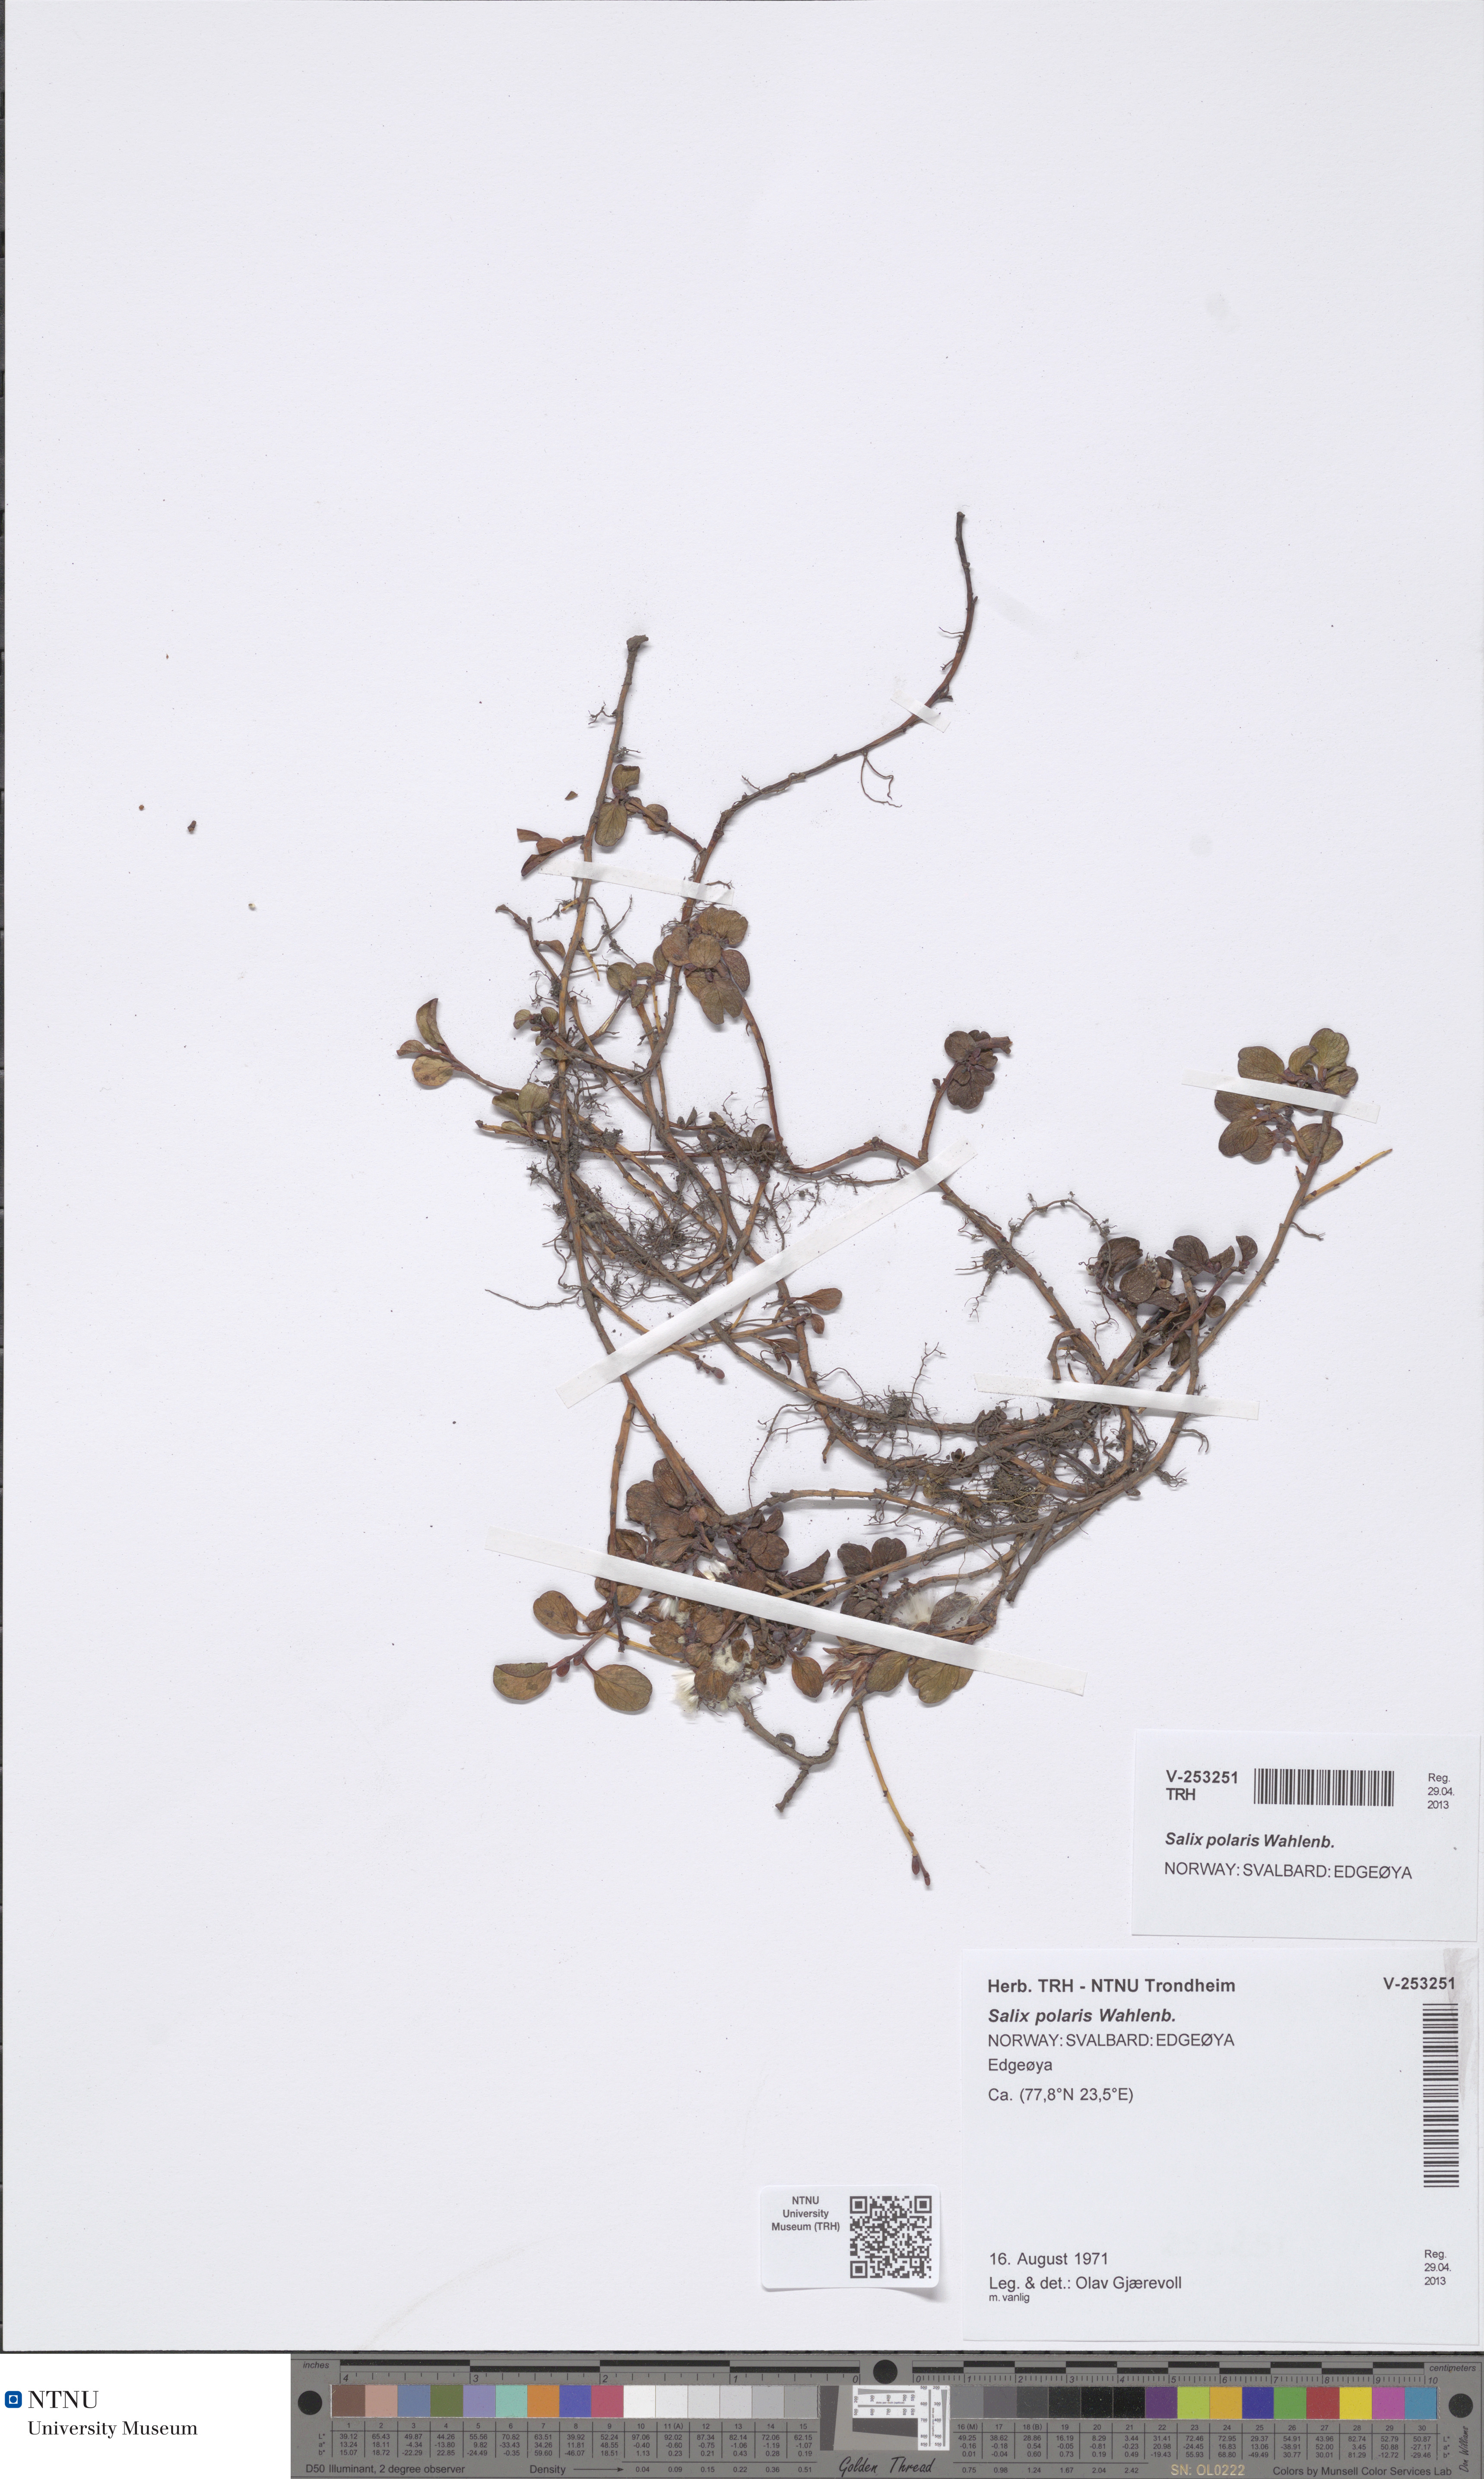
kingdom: Plantae
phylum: Tracheophyta
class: Magnoliopsida
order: Malpighiales
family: Salicaceae
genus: Salix
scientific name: Salix polaris
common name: Polar willow
